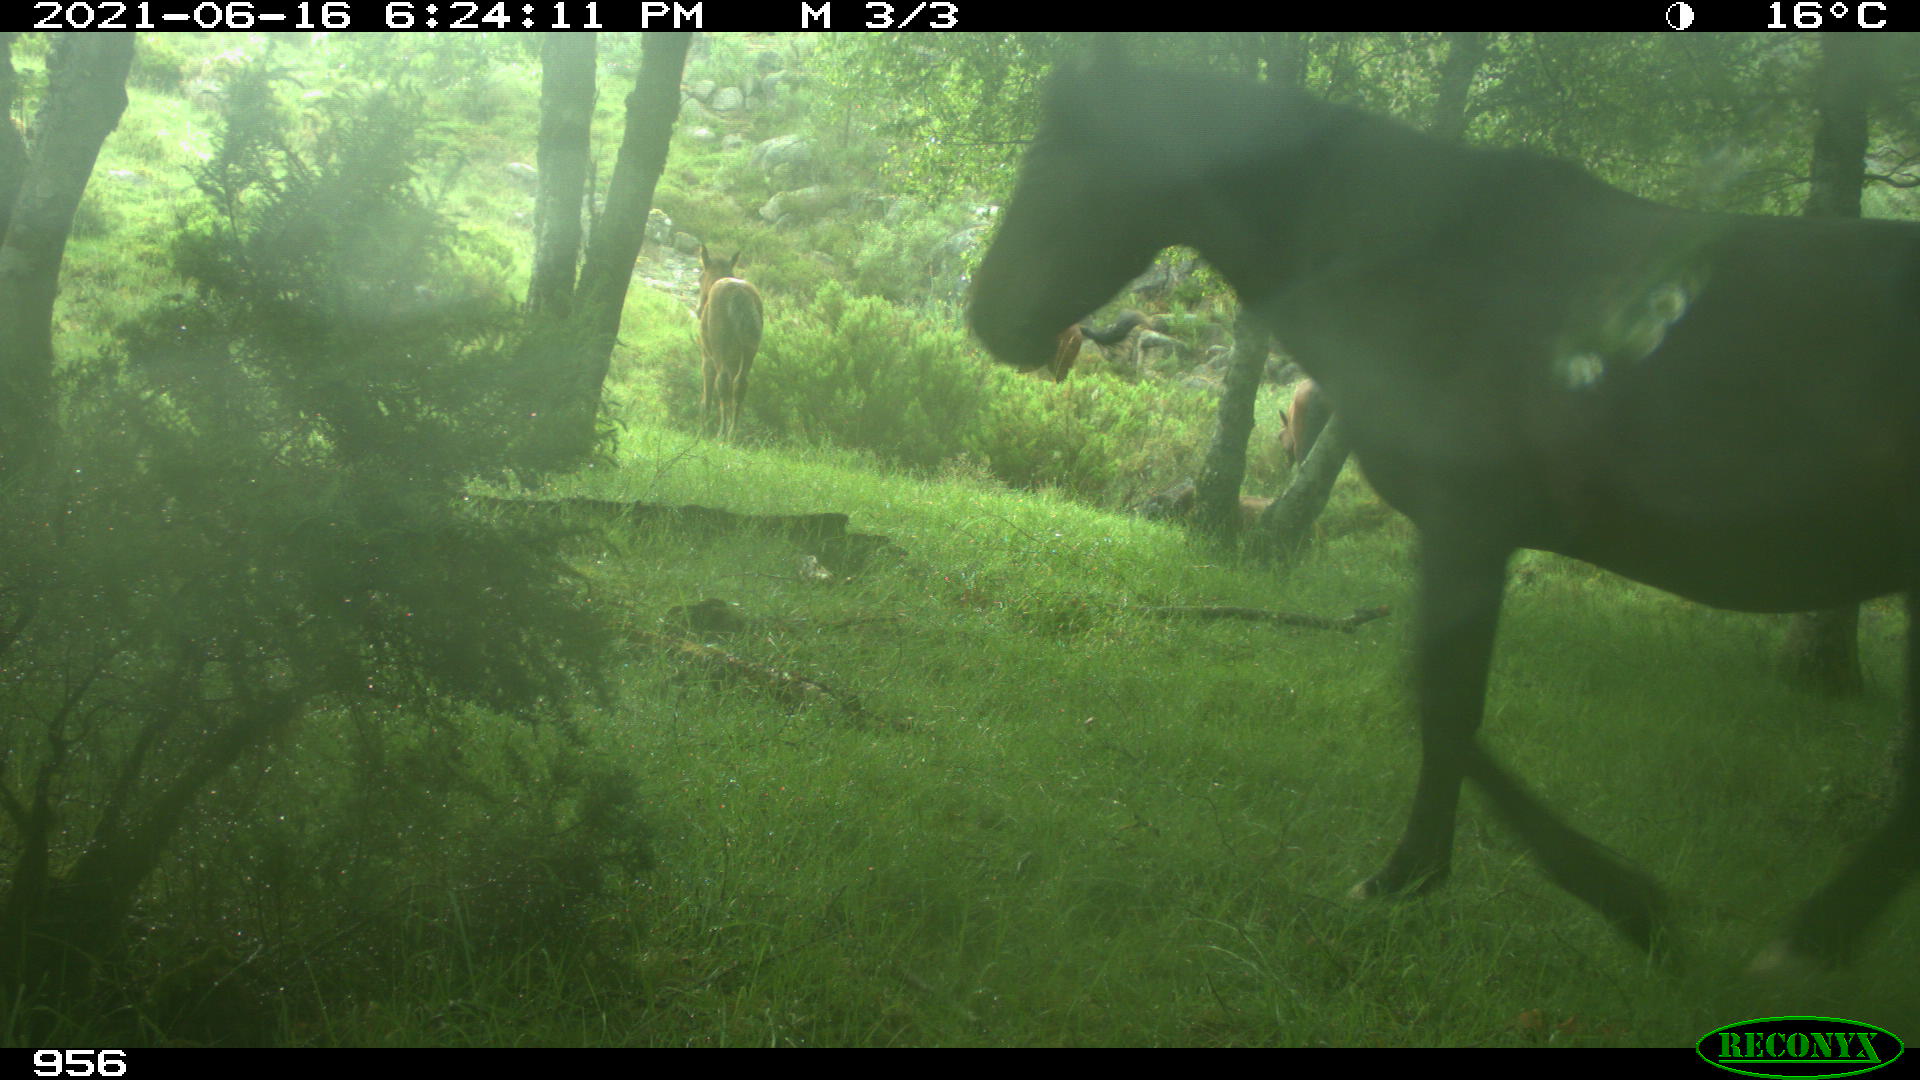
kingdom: Animalia
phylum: Chordata
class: Mammalia
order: Perissodactyla
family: Equidae
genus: Equus
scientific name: Equus caballus
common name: Horse
